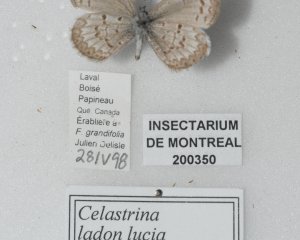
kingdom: Animalia
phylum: Arthropoda
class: Insecta
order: Lepidoptera
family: Lycaenidae
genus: Celastrina
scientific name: Celastrina lucia
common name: Northern Spring Azure
